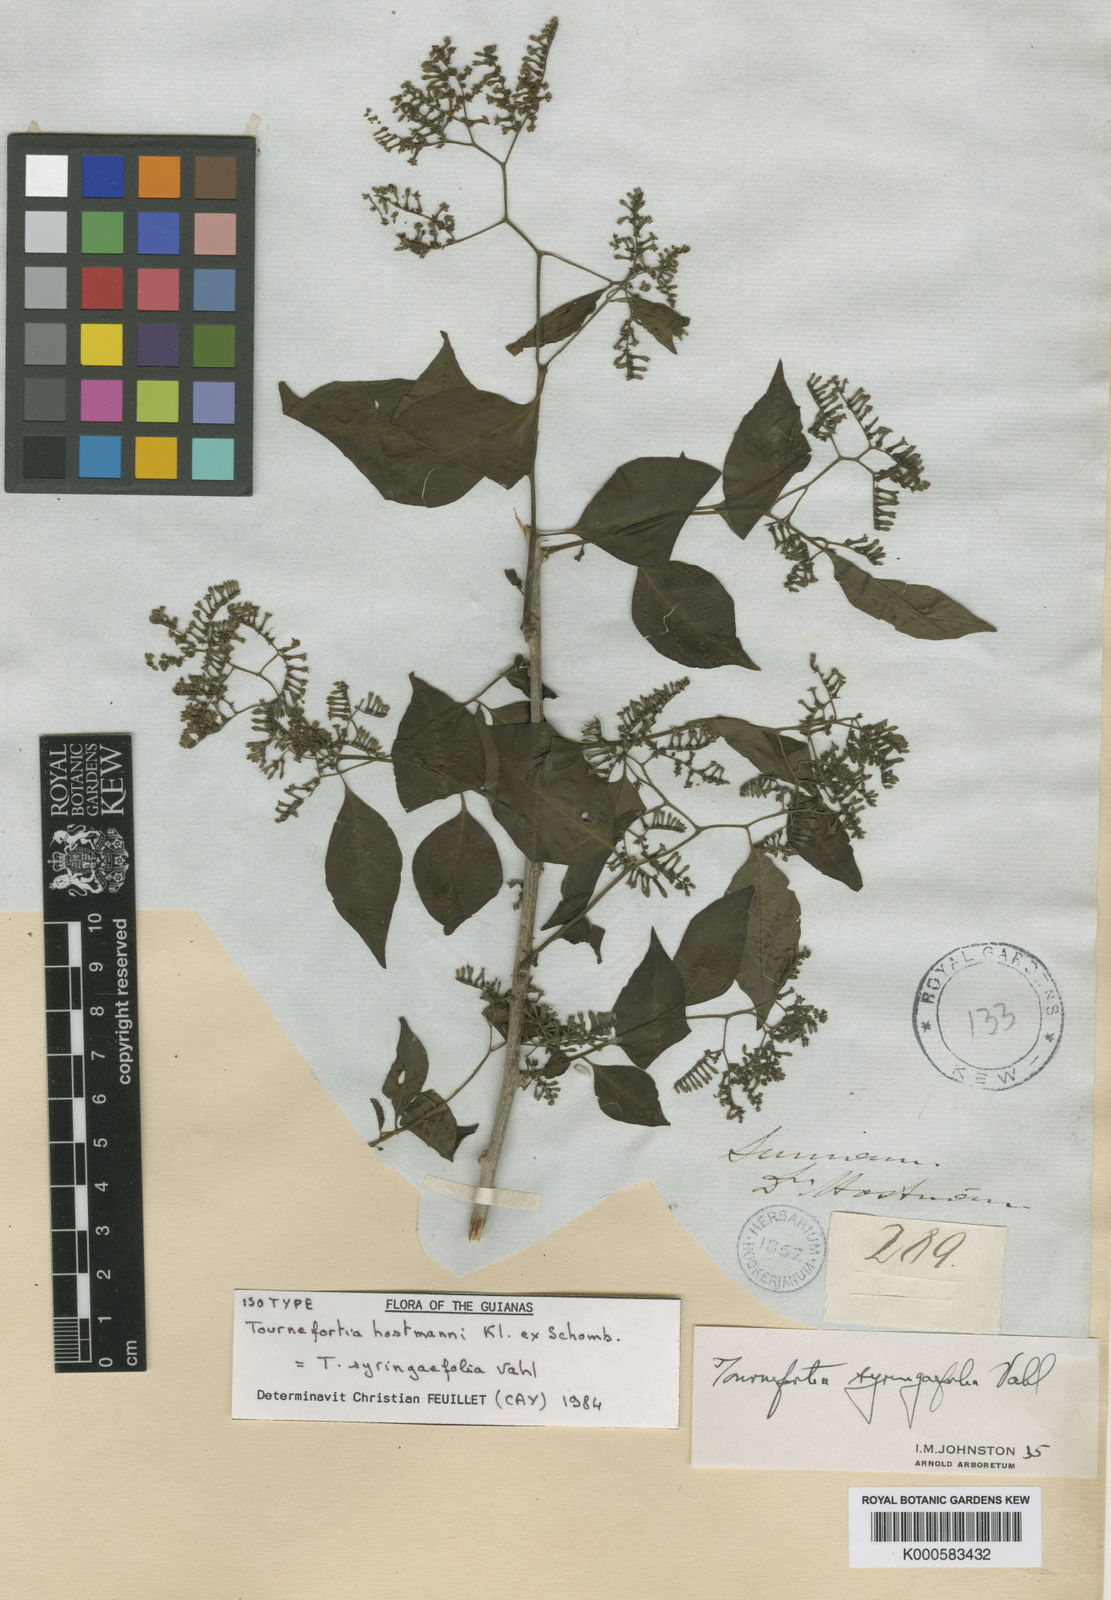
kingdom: Plantae
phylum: Tracheophyta
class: Magnoliopsida
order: Boraginales
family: Heliotropiaceae
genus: Myriopus
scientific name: Myriopus maculatus
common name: Laurel-leaf soldierbush
